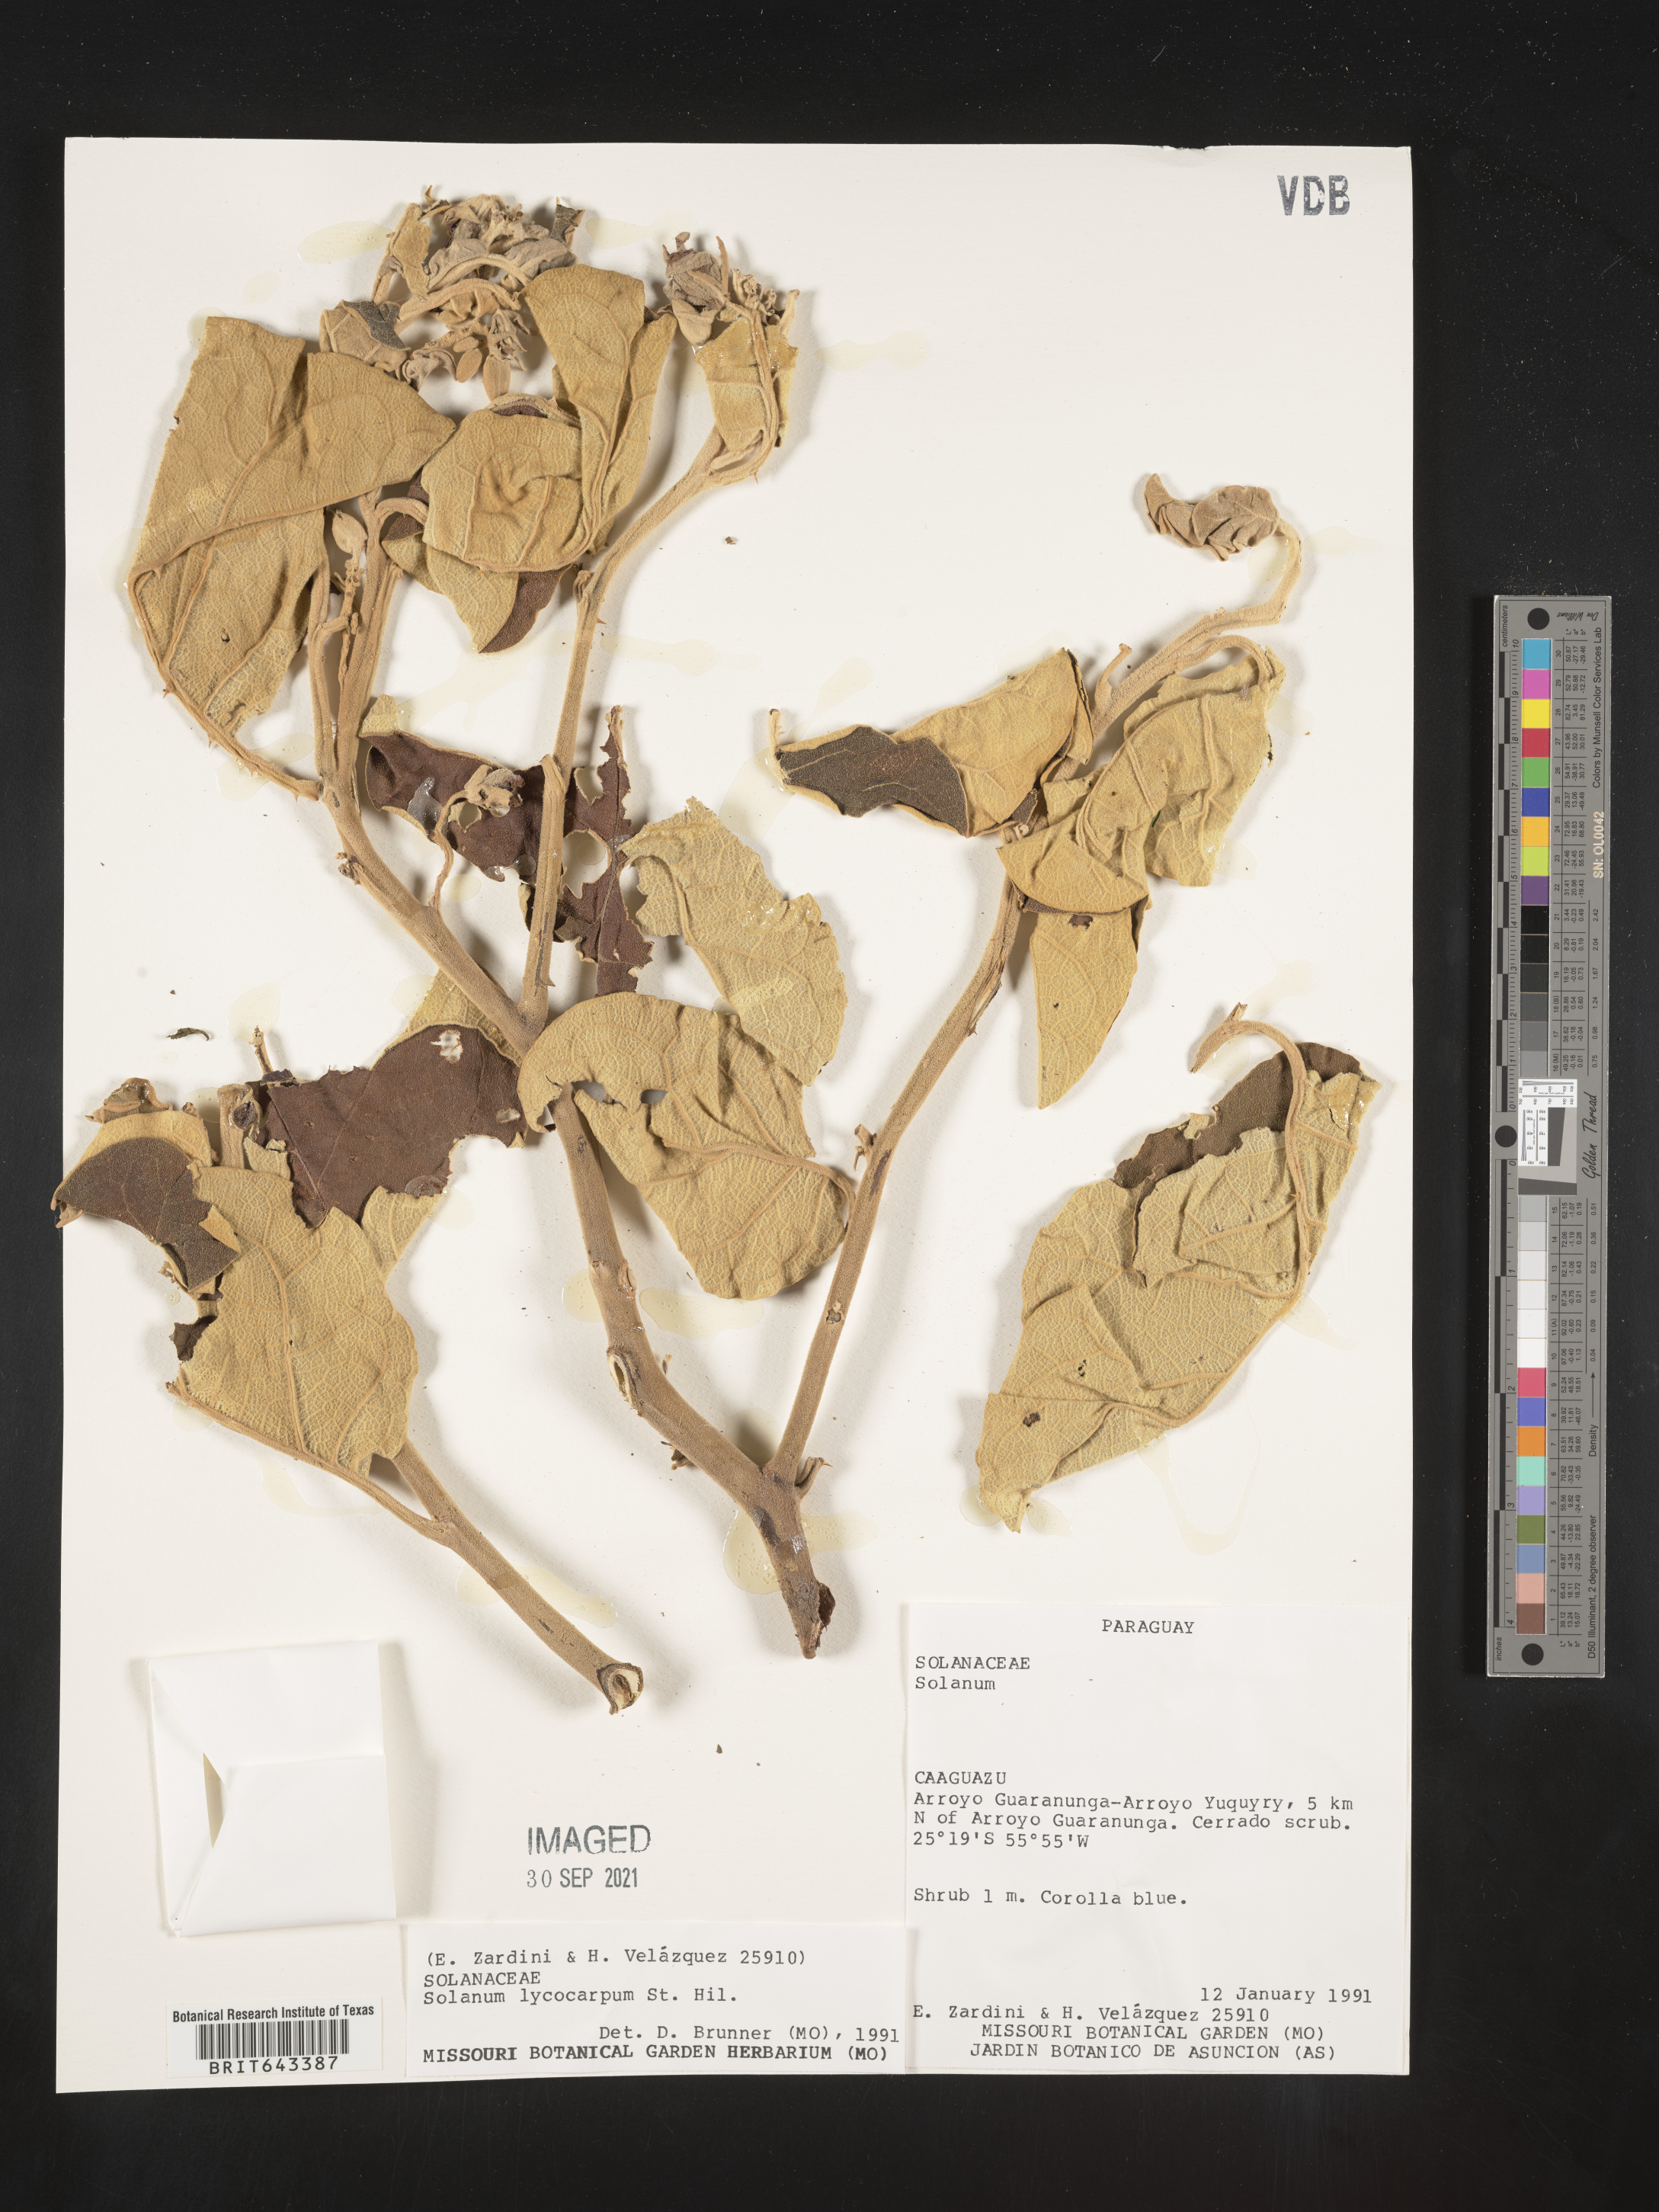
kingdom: Plantae
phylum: Tracheophyta
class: Magnoliopsida
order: Solanales
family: Solanaceae
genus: Solanum
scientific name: Solanum
